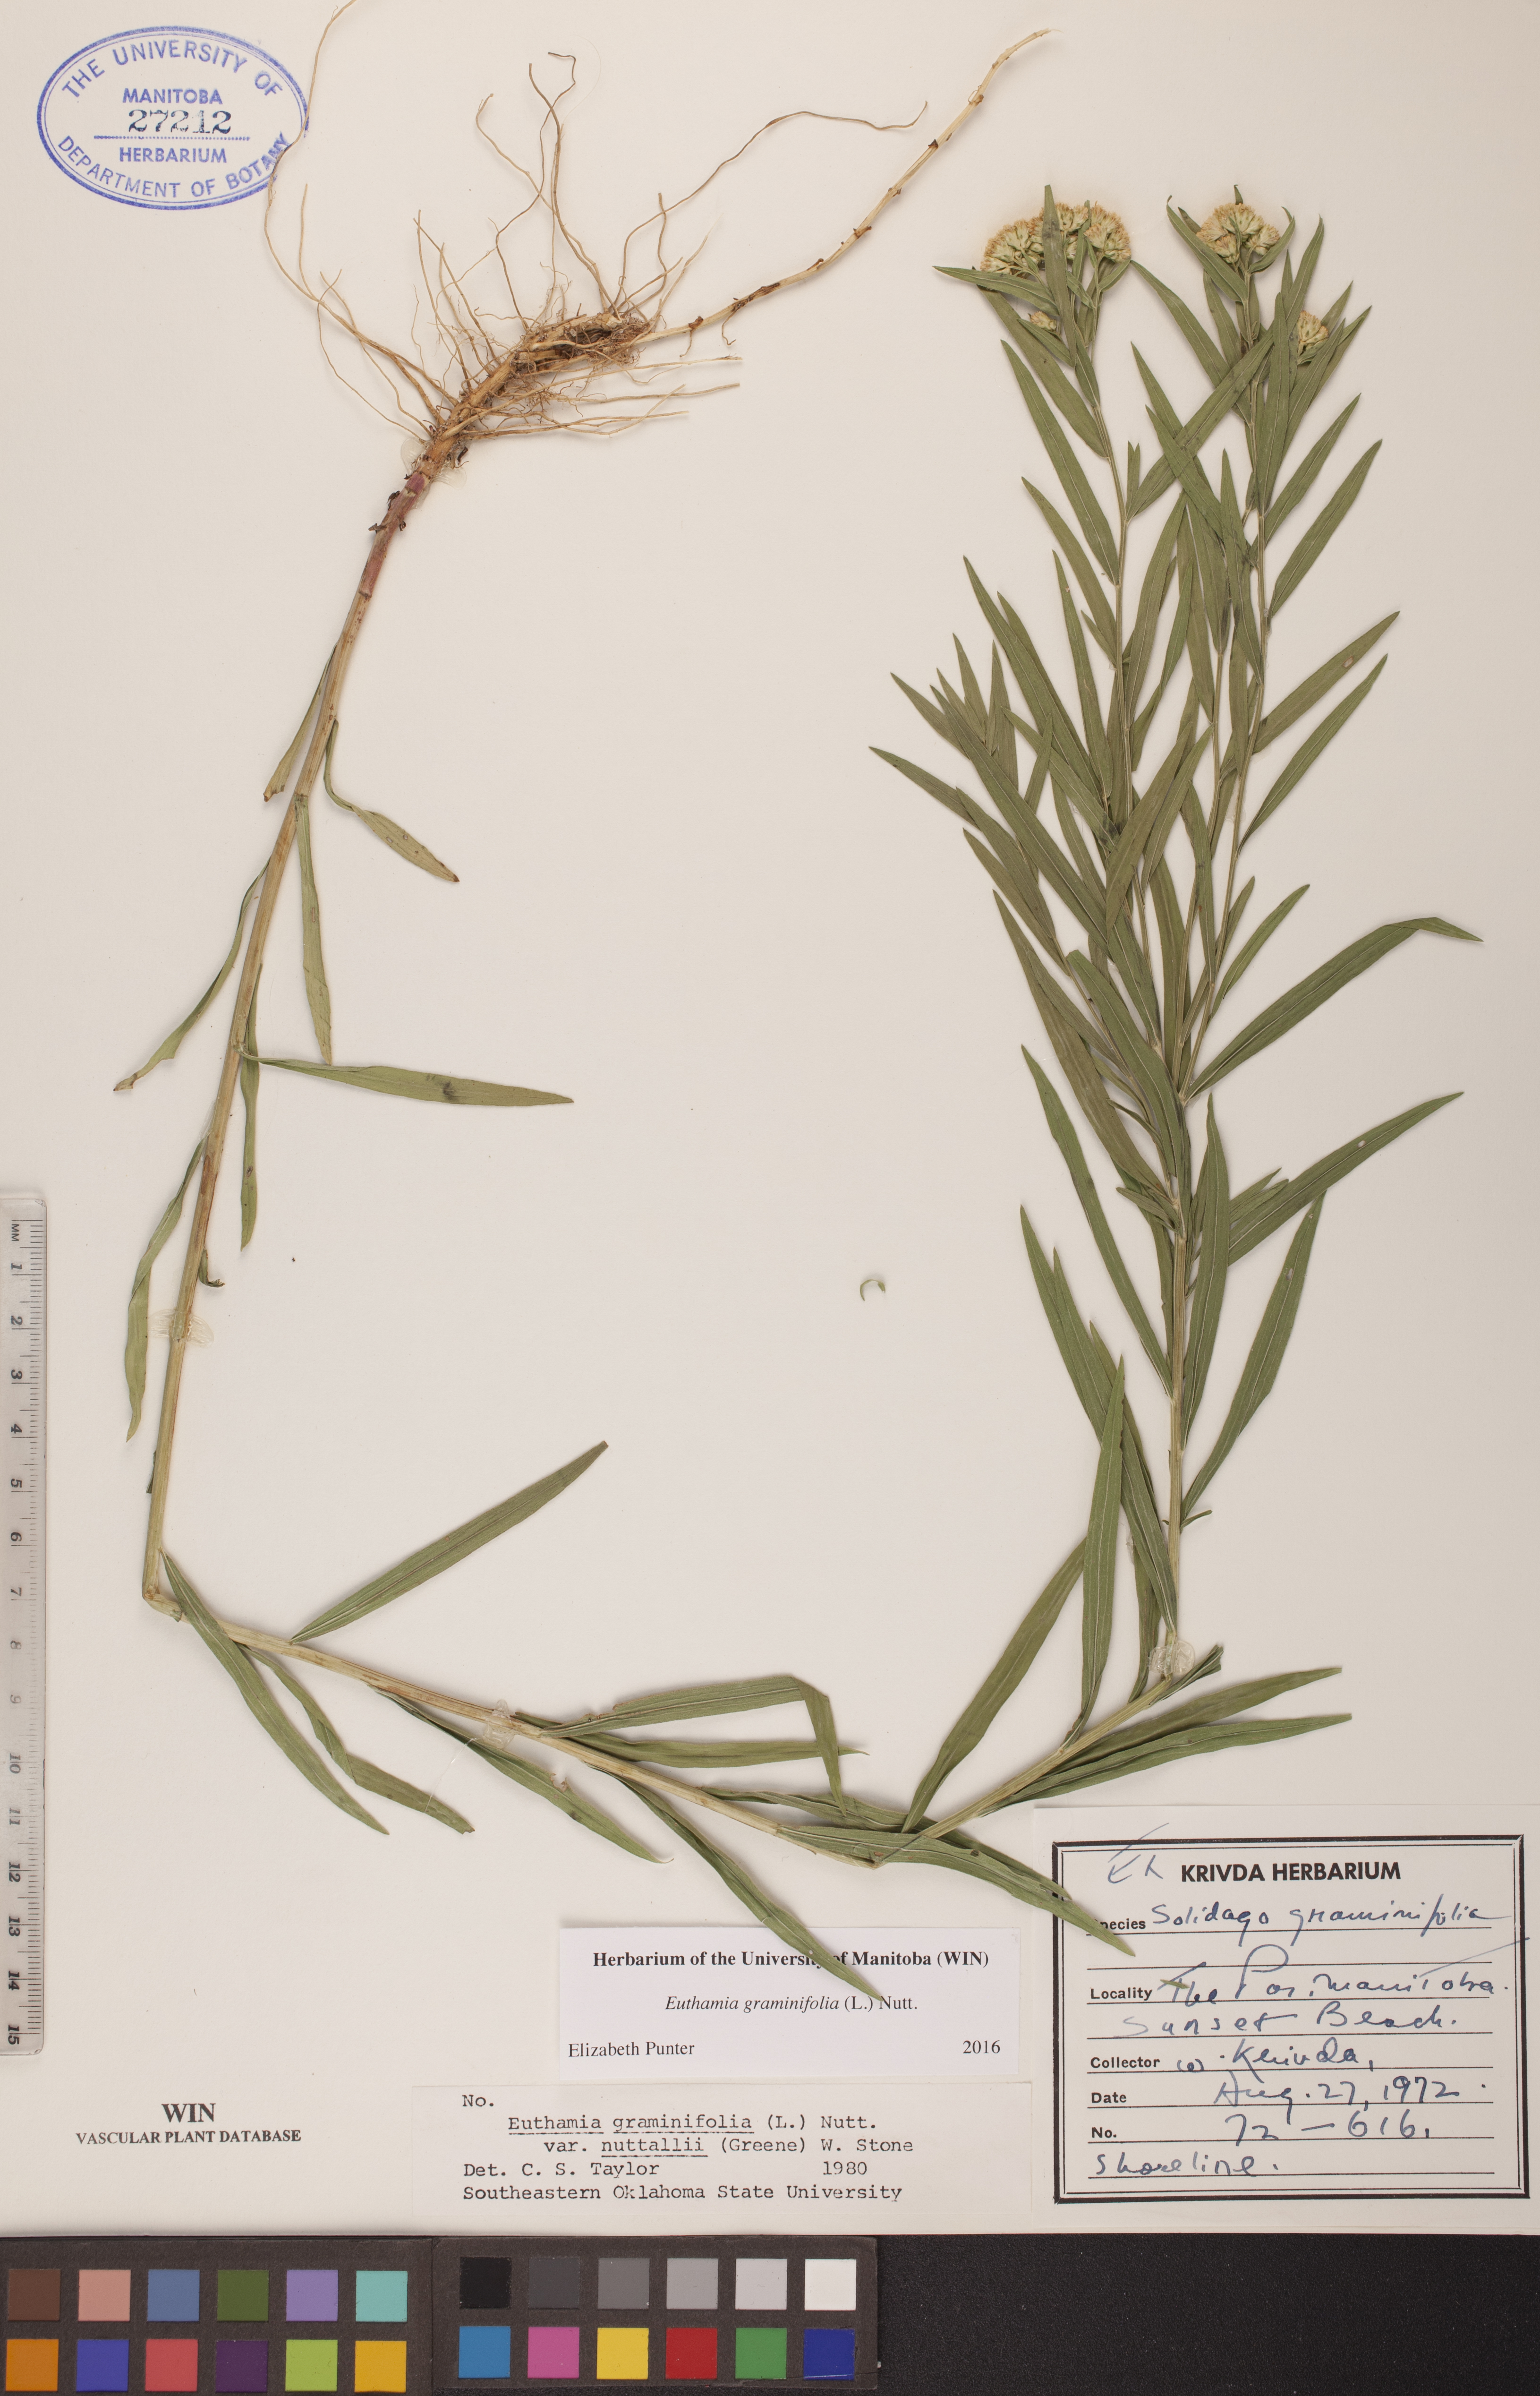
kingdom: Plantae
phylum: Tracheophyta
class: Magnoliopsida
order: Asterales
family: Asteraceae
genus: Euthamia
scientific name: Euthamia graminifolia
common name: Common goldentop
